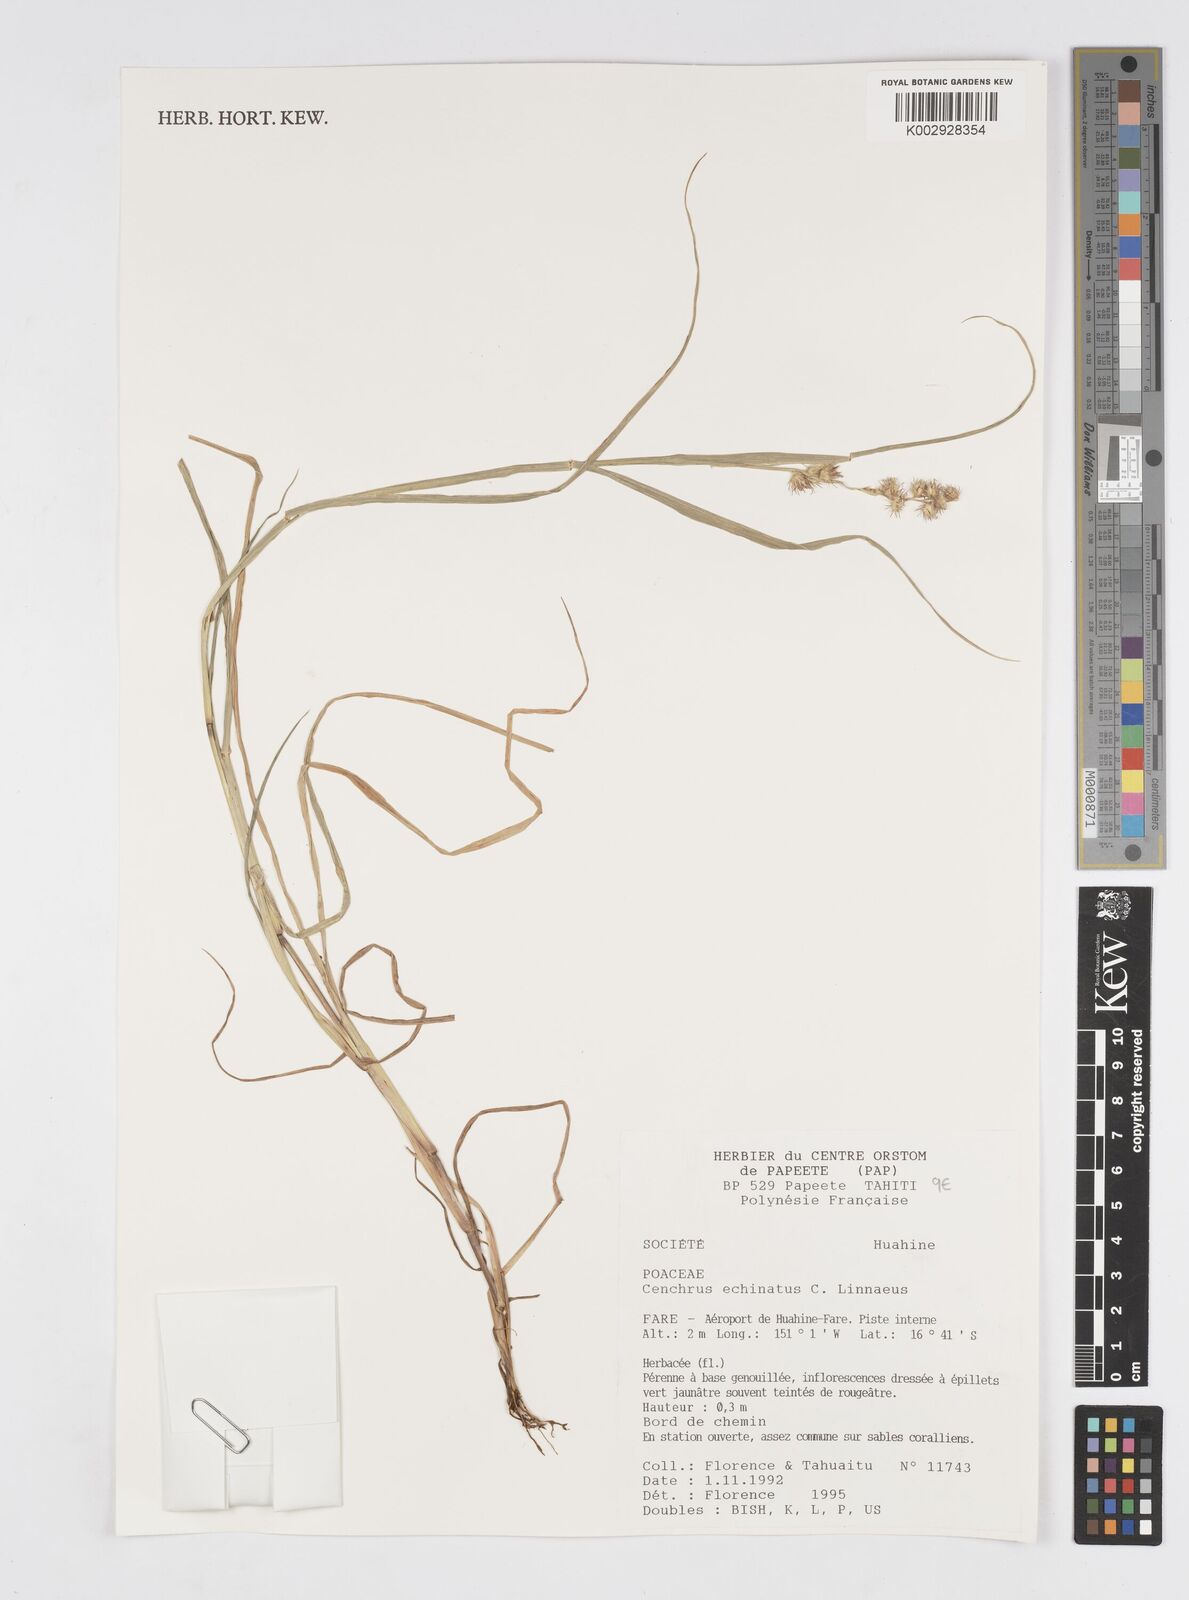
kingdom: Plantae
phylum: Tracheophyta
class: Liliopsida
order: Poales
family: Poaceae
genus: Cenchrus
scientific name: Cenchrus echinatus
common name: Southern sandbur
